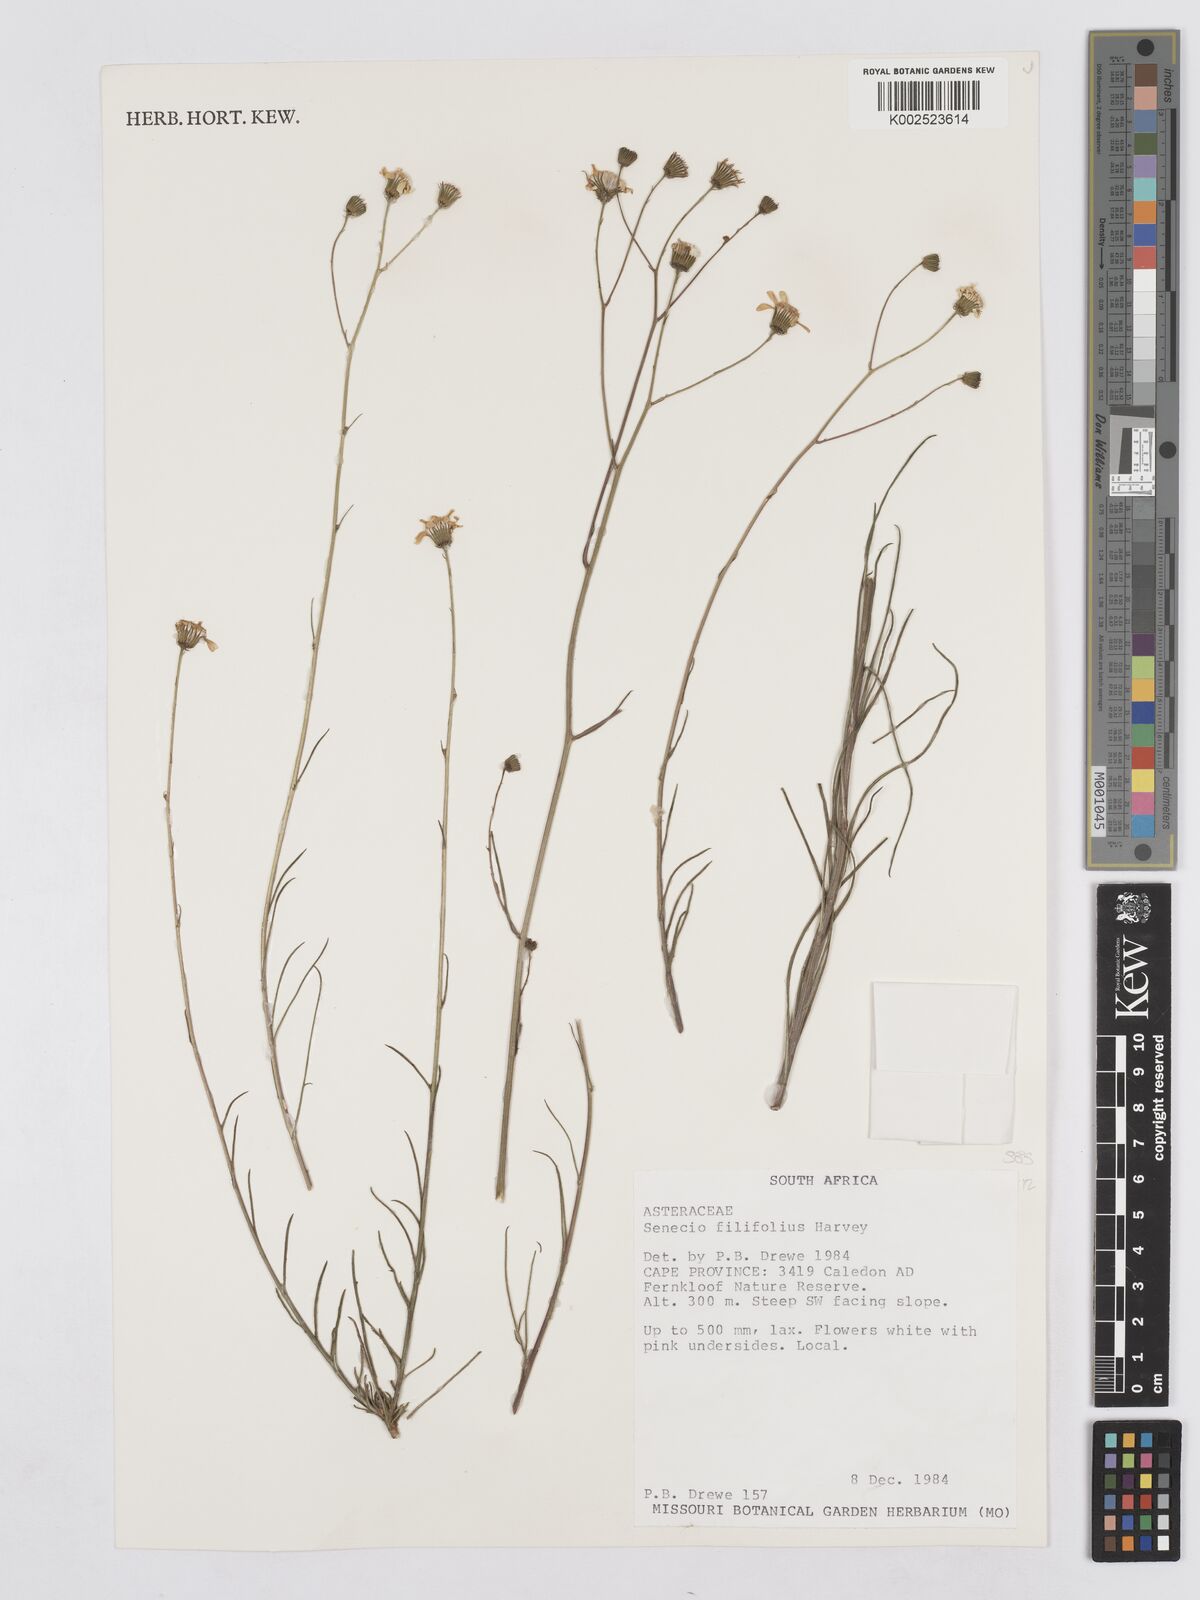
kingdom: Plantae
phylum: Tracheophyta
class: Magnoliopsida
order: Asterales
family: Asteraceae
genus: Senecio
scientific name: Senecio
